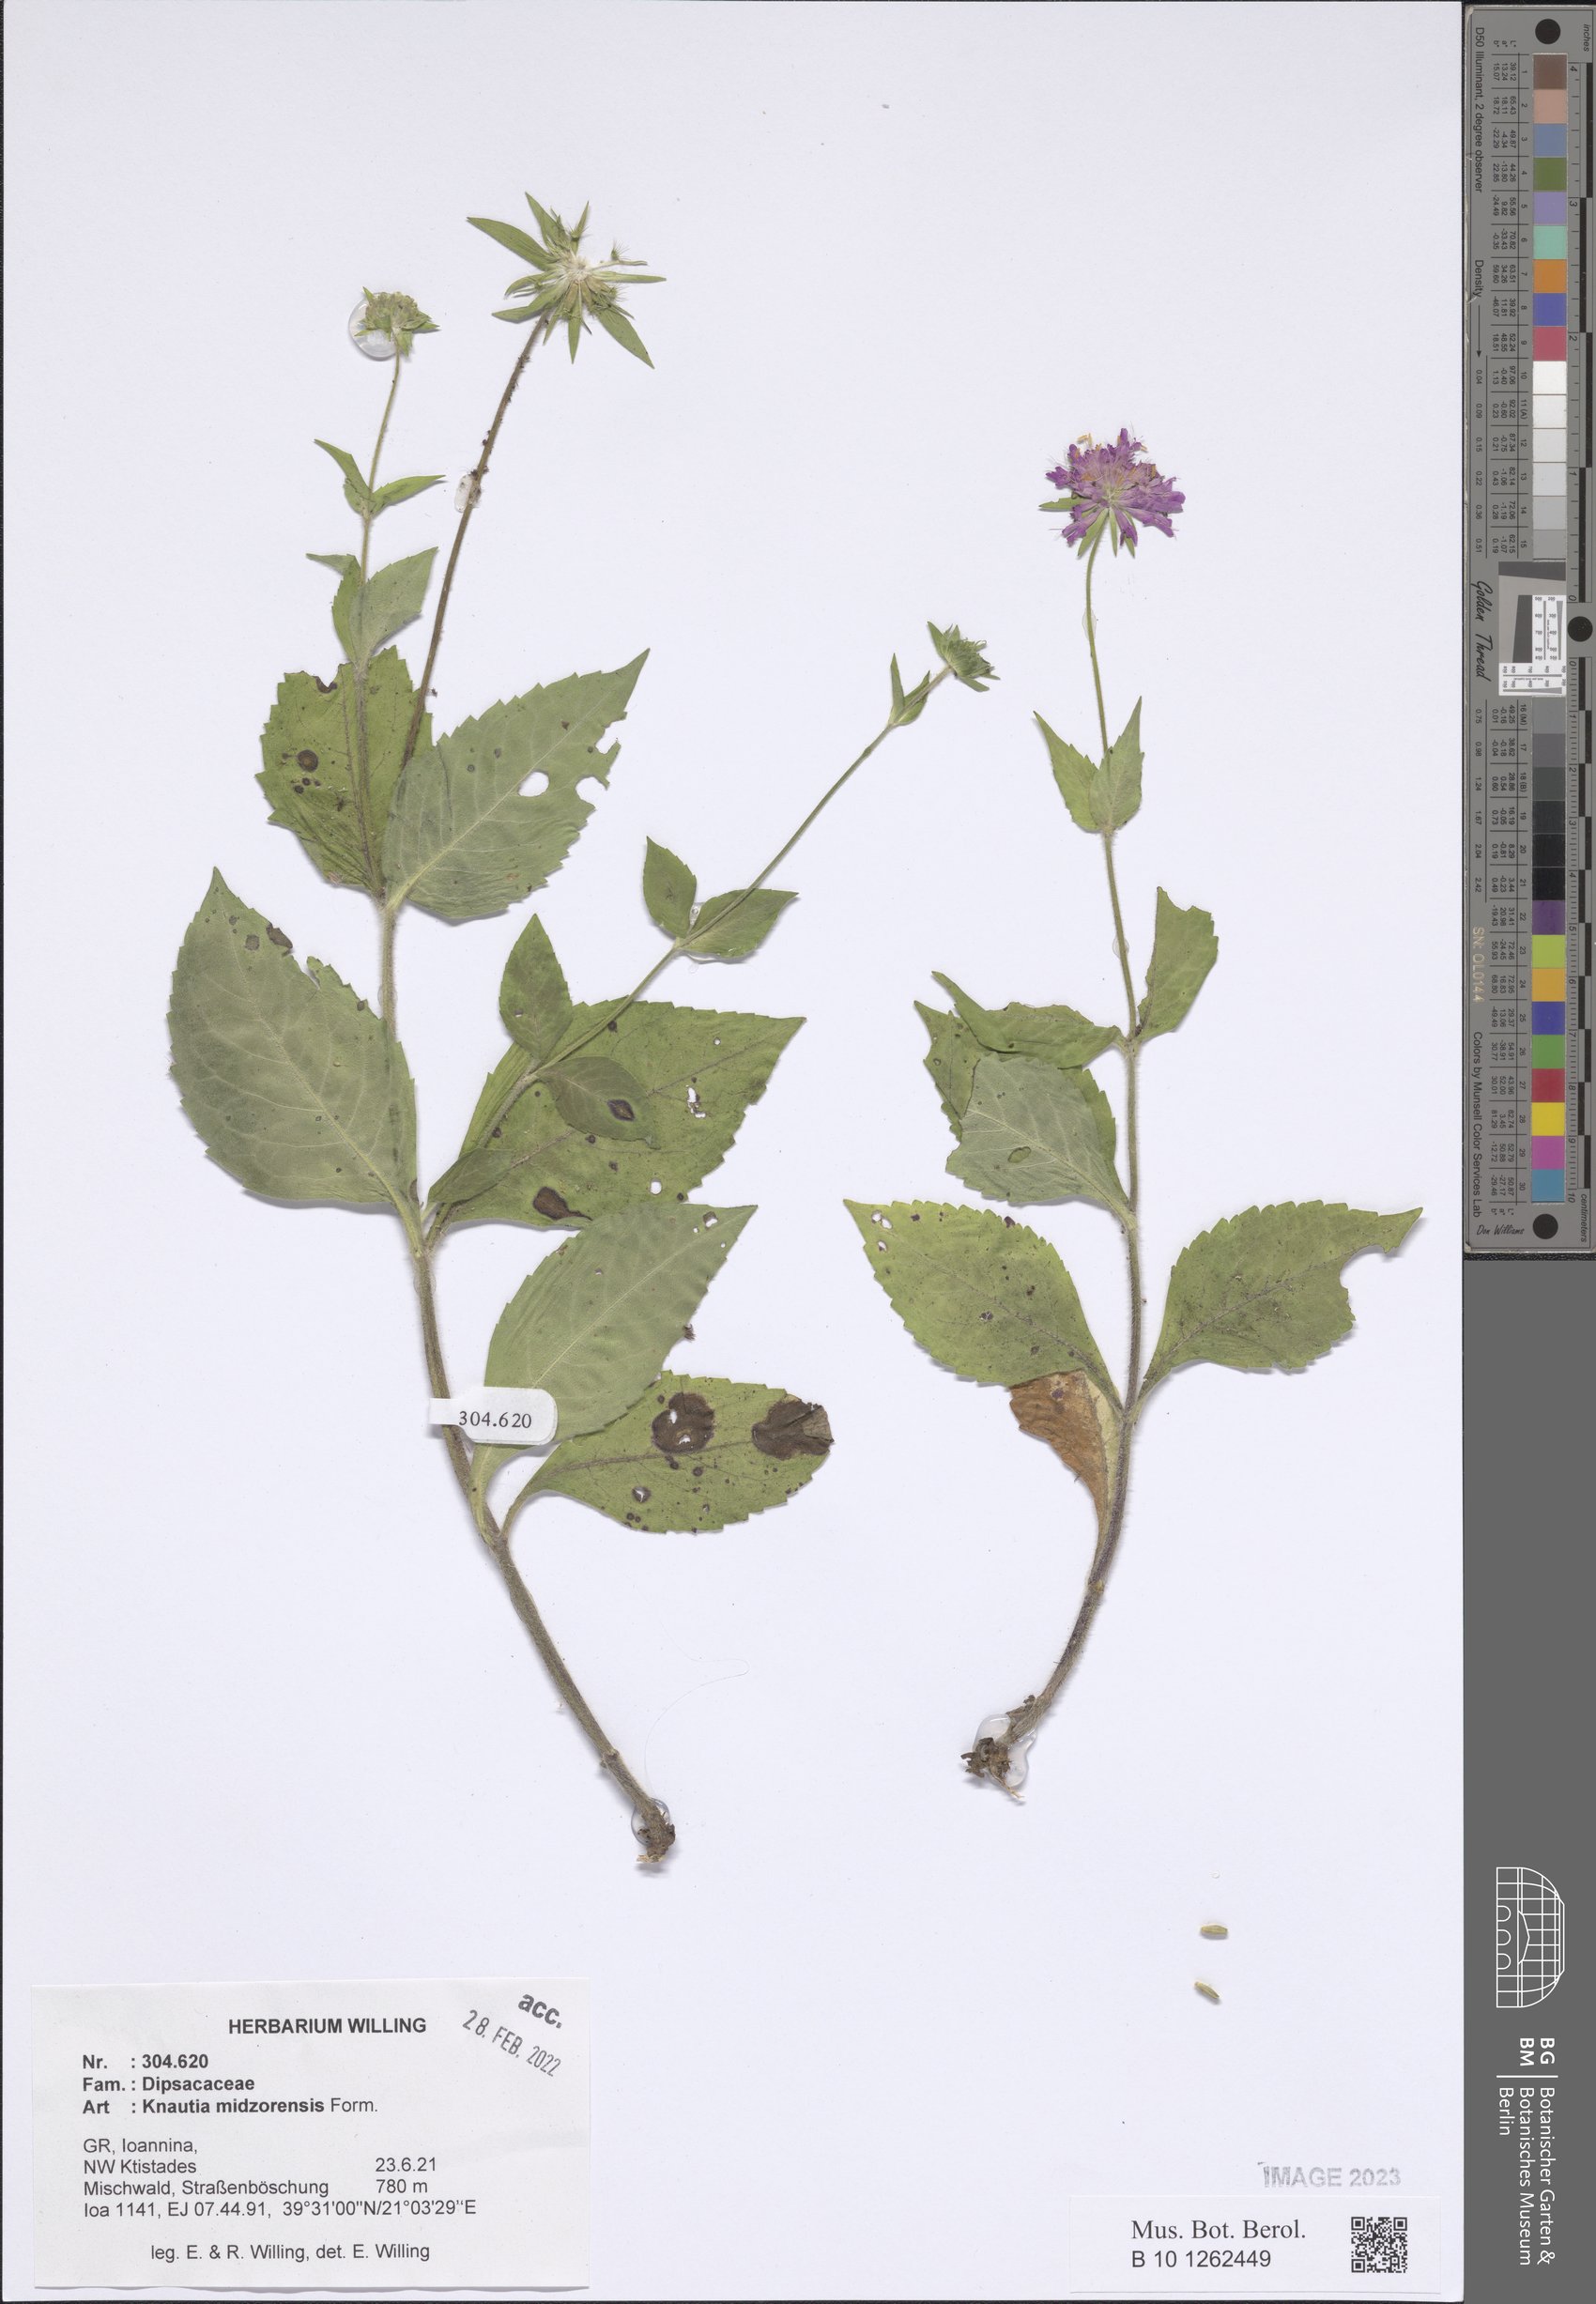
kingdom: Plantae
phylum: Tracheophyta
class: Magnoliopsida
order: Dipsacales
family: Caprifoliaceae
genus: Knautia
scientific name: Knautia midzorensis
